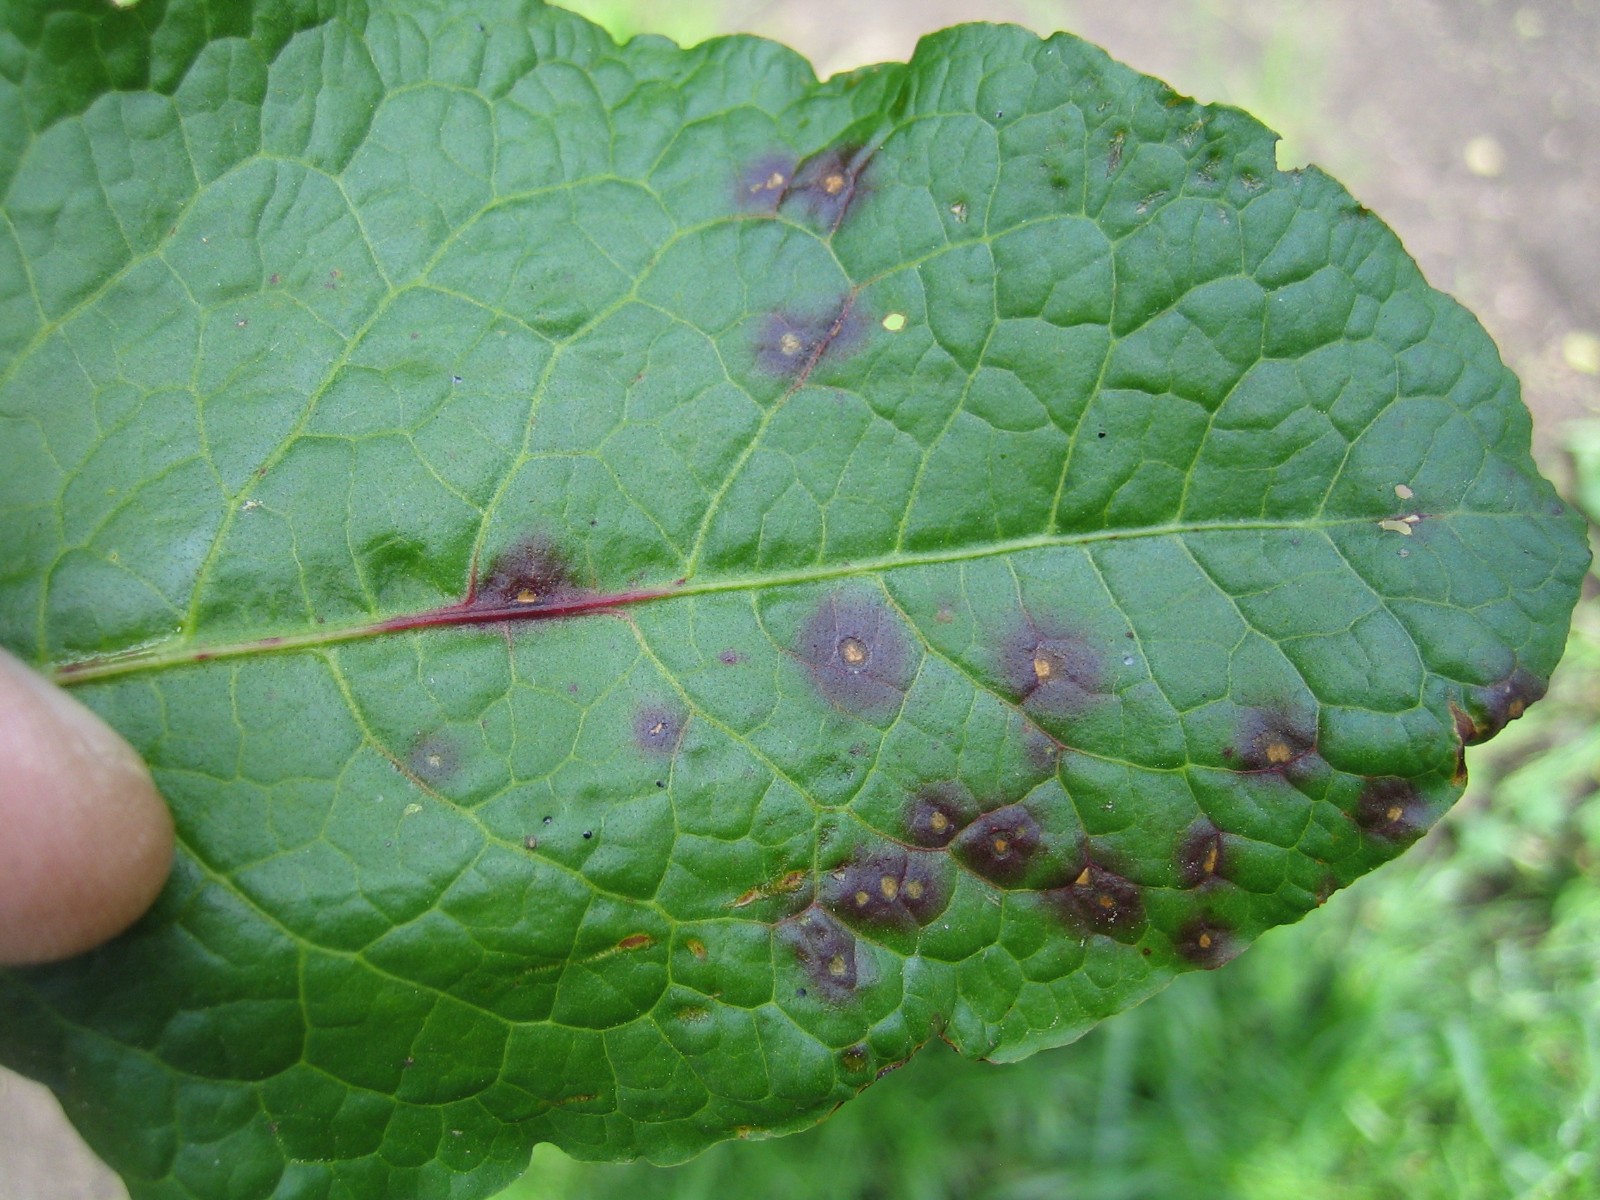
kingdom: Fungi
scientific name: Fungi
